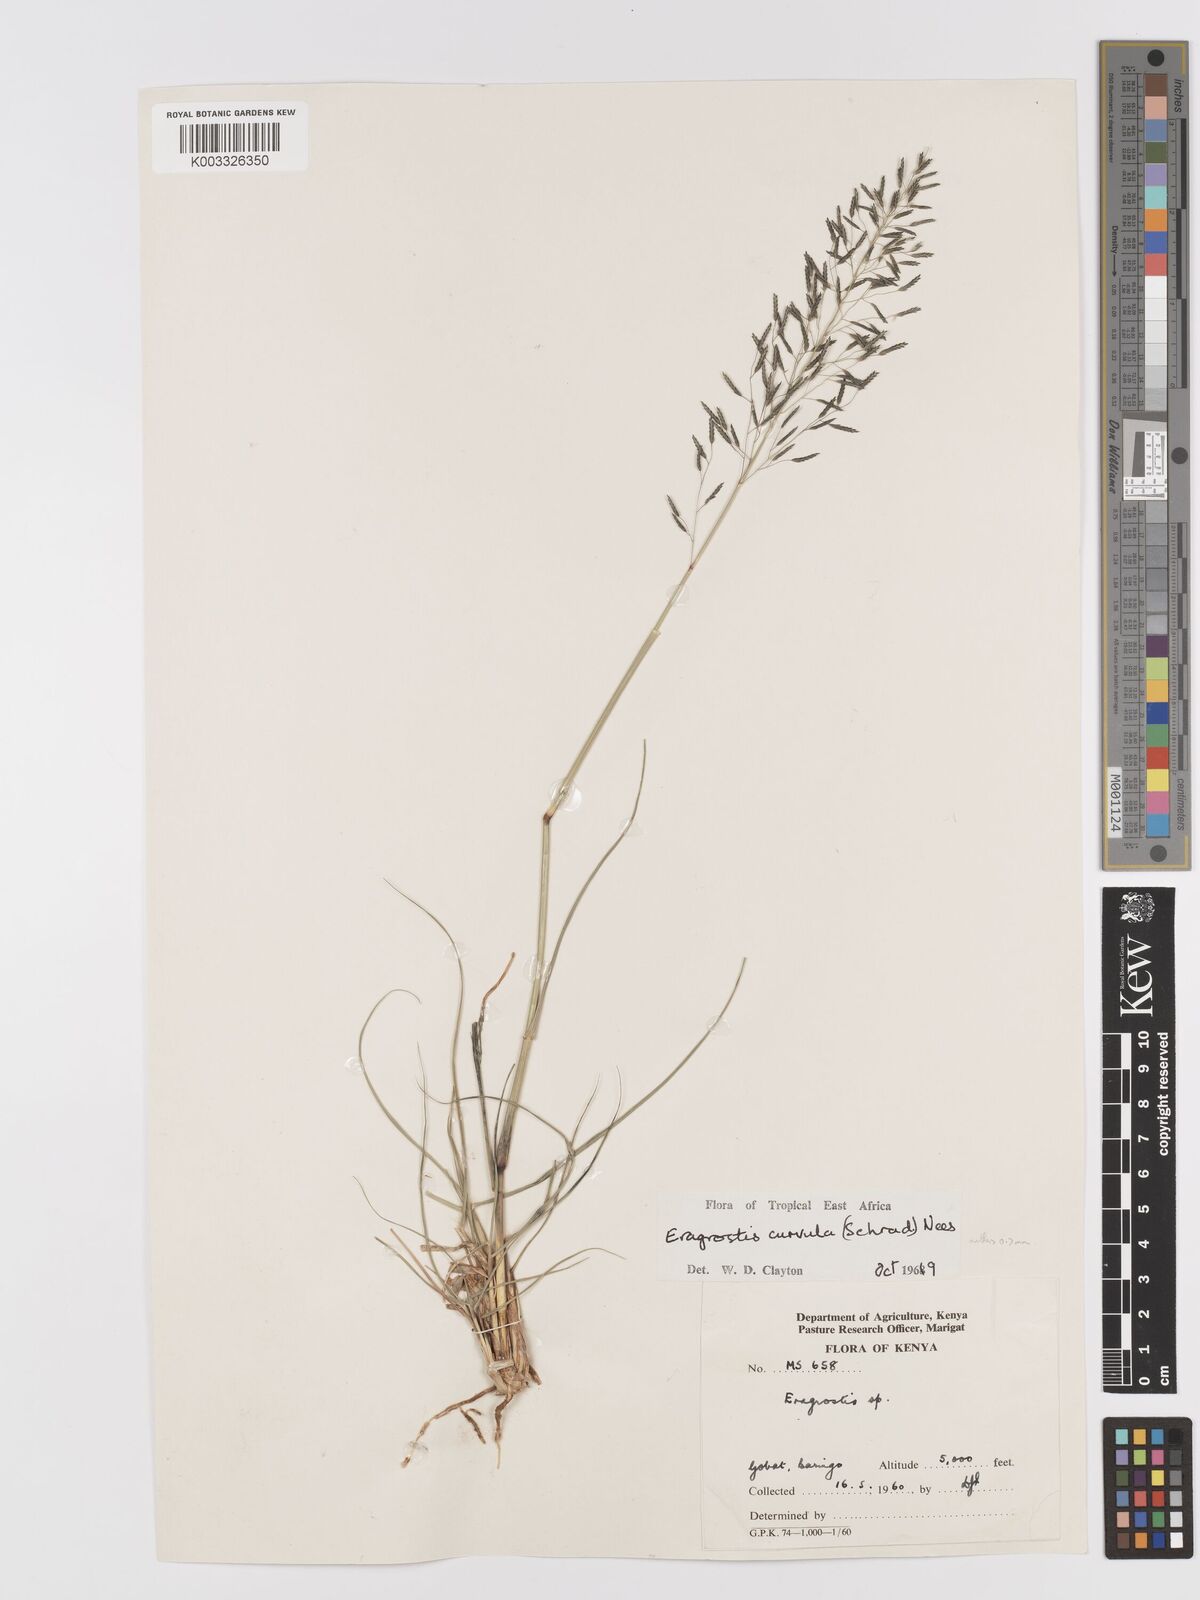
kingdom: Plantae
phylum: Tracheophyta
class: Liliopsida
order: Poales
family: Poaceae
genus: Eragrostis
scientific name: Eragrostis curvula
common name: African love-grass
